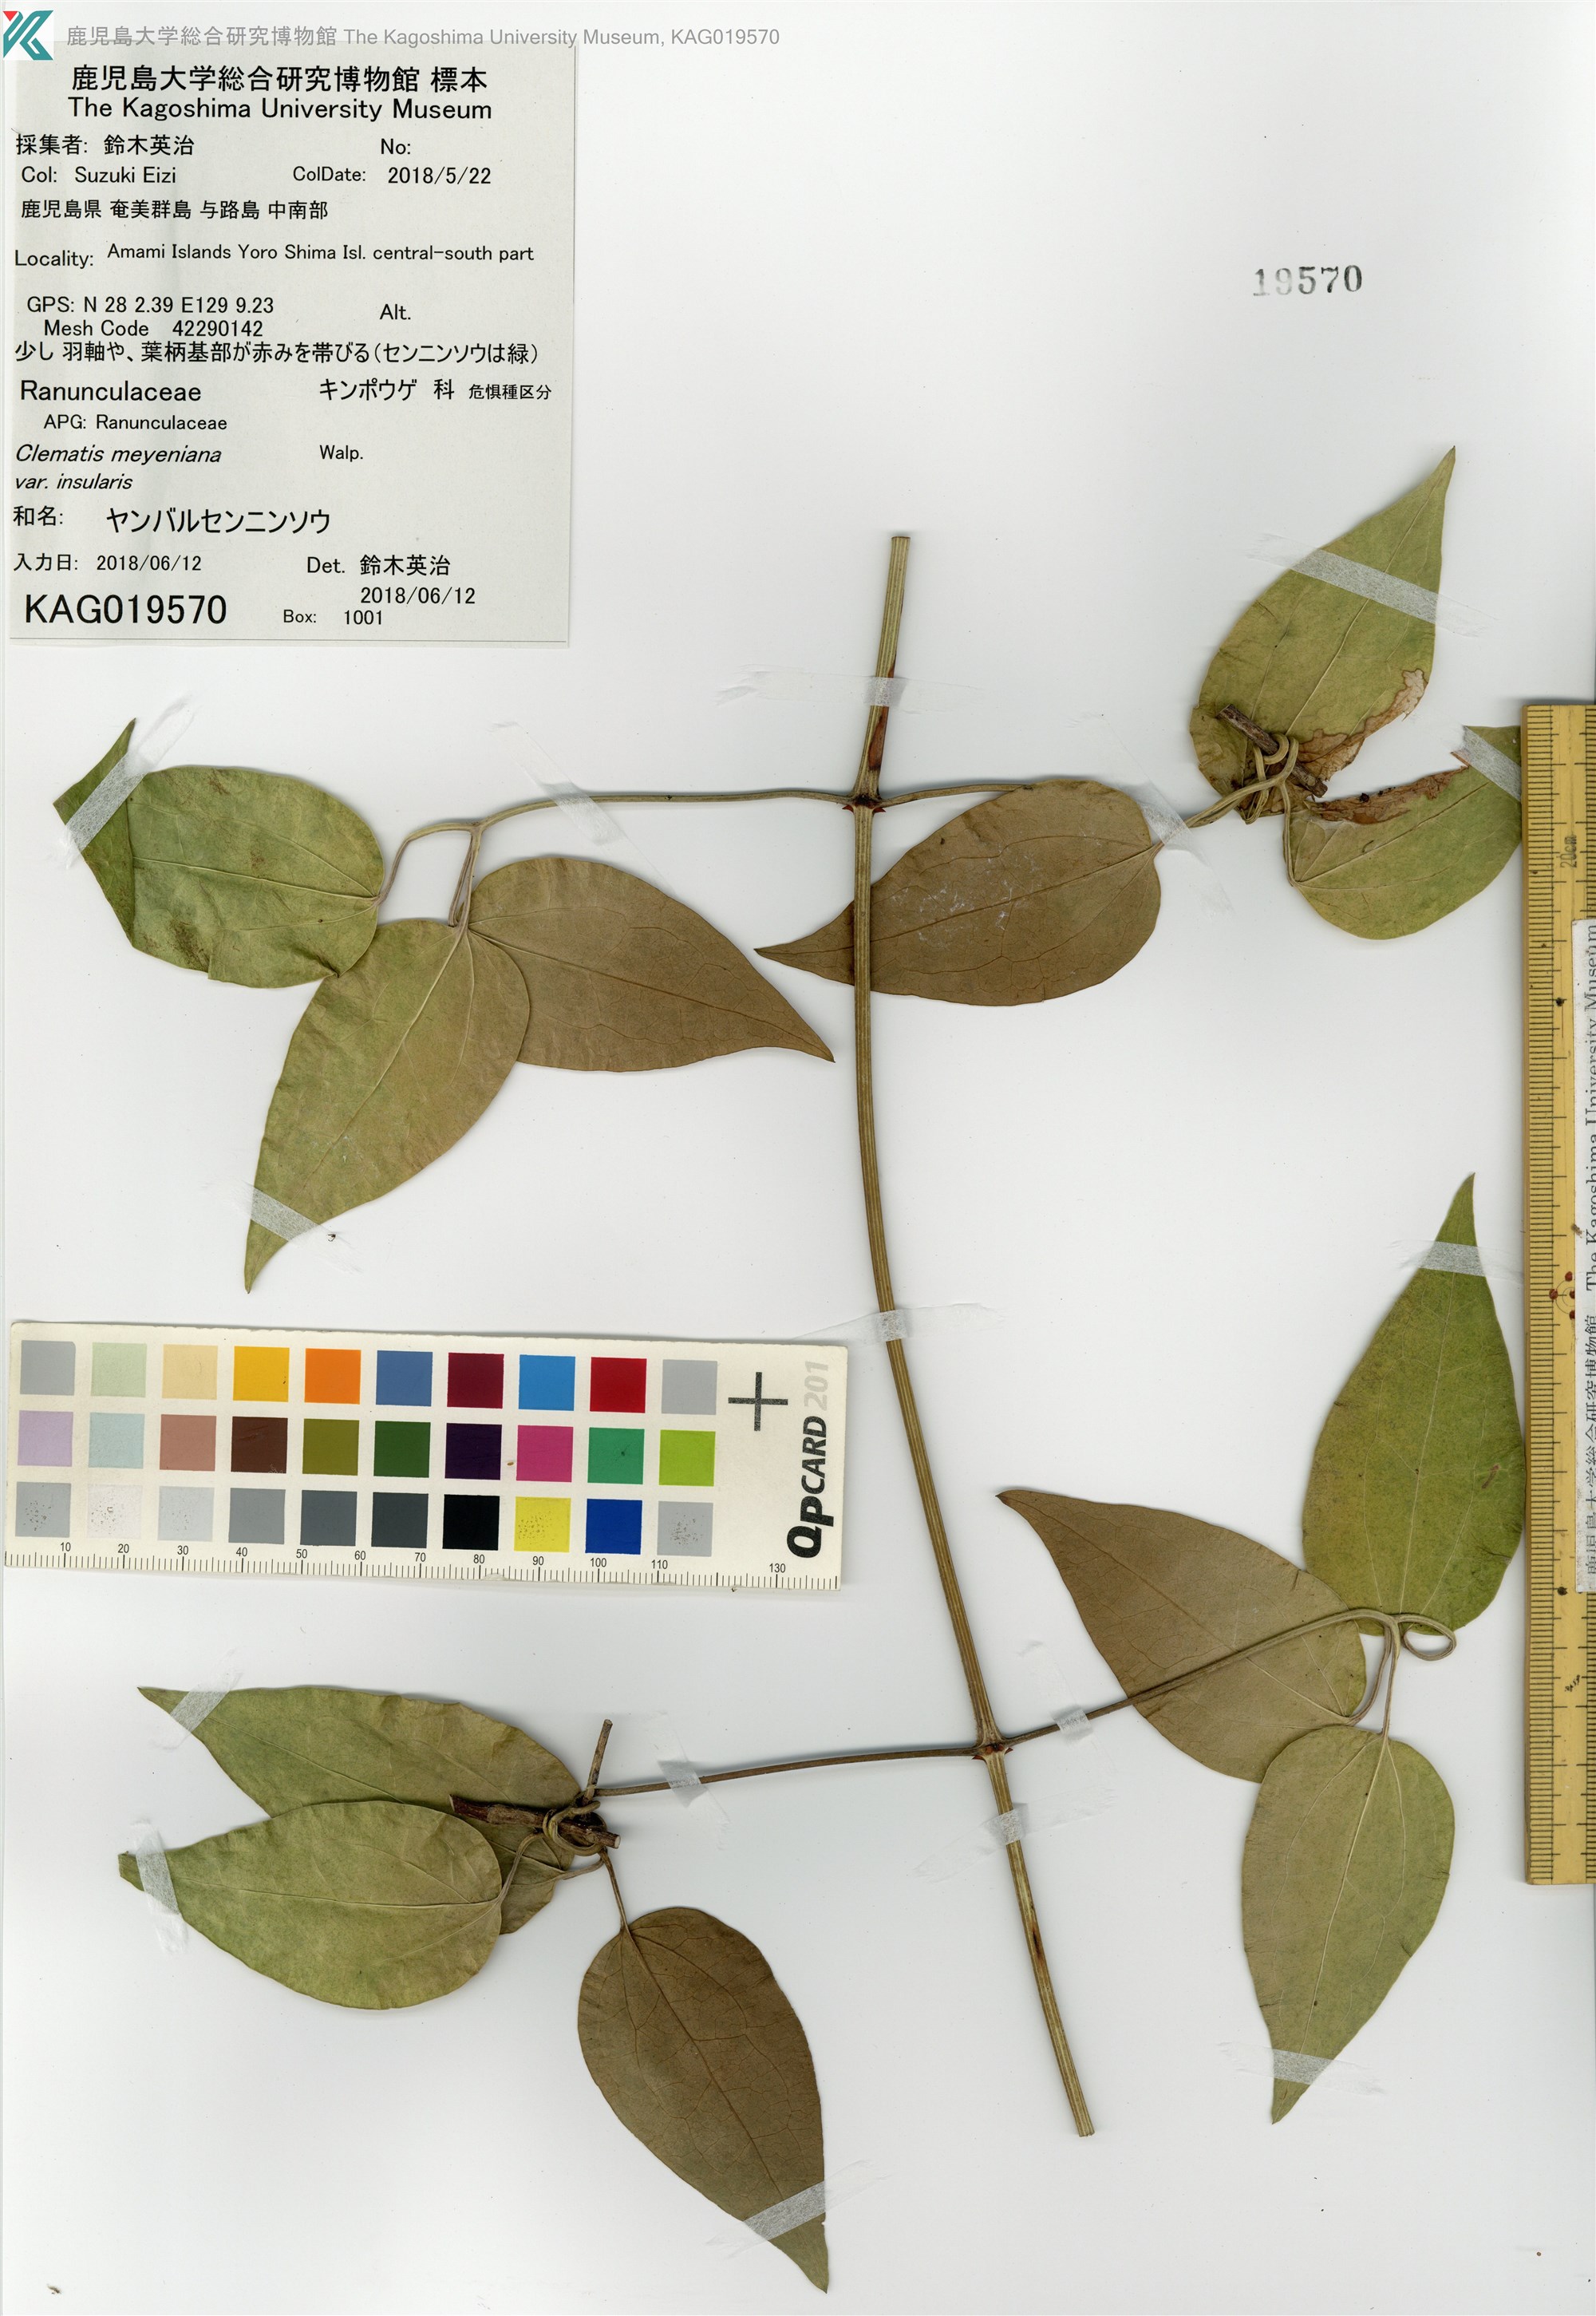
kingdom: Plantae
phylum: Tracheophyta
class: Magnoliopsida
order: Ranunculales
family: Ranunculaceae
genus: Clematis
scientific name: Clematis meyeniana
